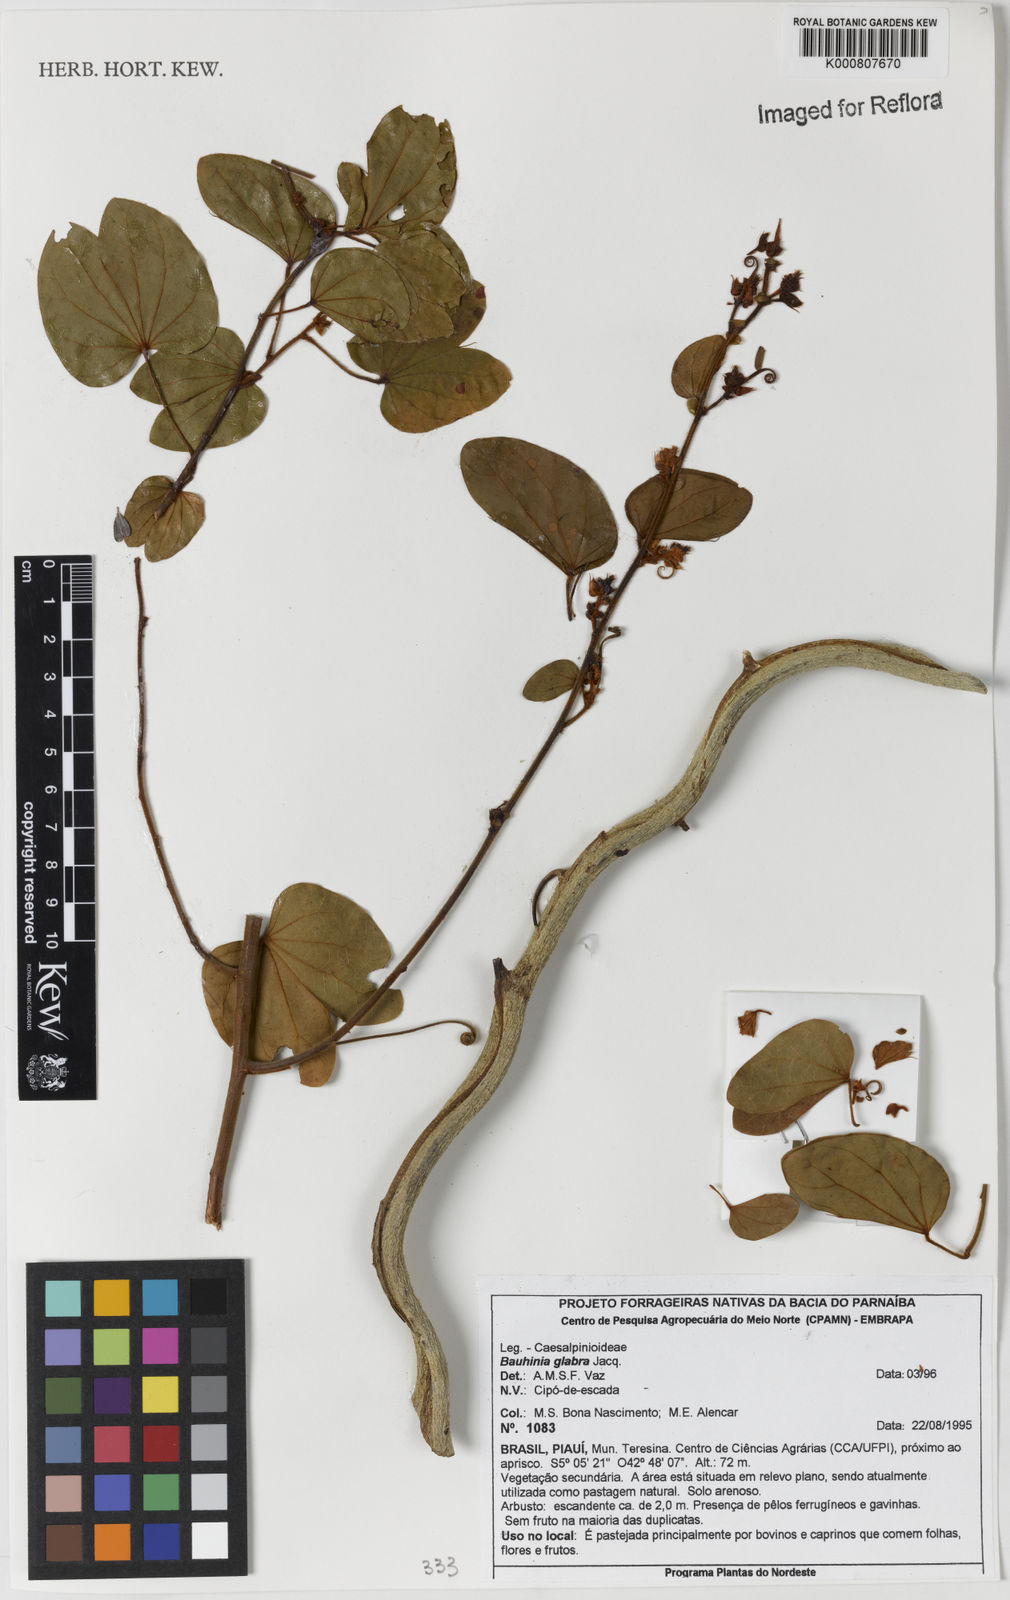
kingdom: Plantae
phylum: Tracheophyta
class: Magnoliopsida
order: Fabales
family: Fabaceae
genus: Schnella
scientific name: Schnella glabra
